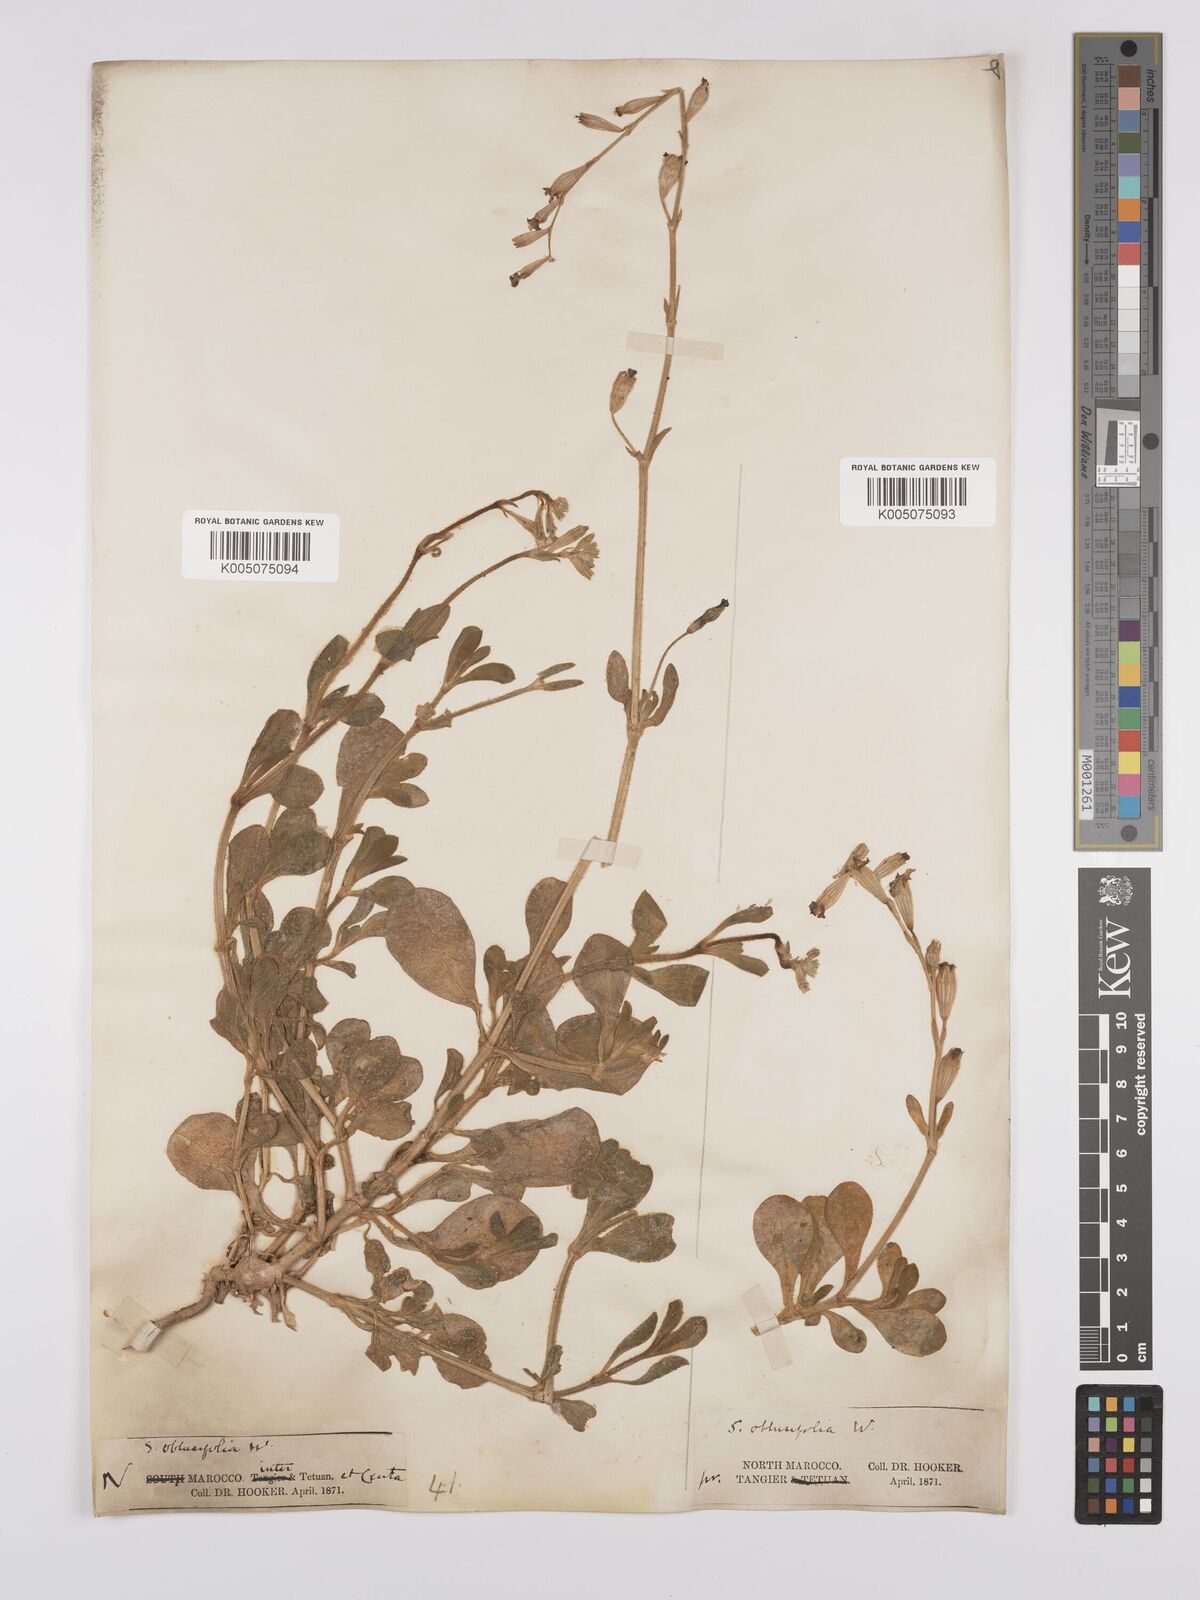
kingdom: Plantae
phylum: Tracheophyta
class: Magnoliopsida
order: Caryophyllales
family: Caryophyllaceae
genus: Silene
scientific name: Silene obtusifolia
